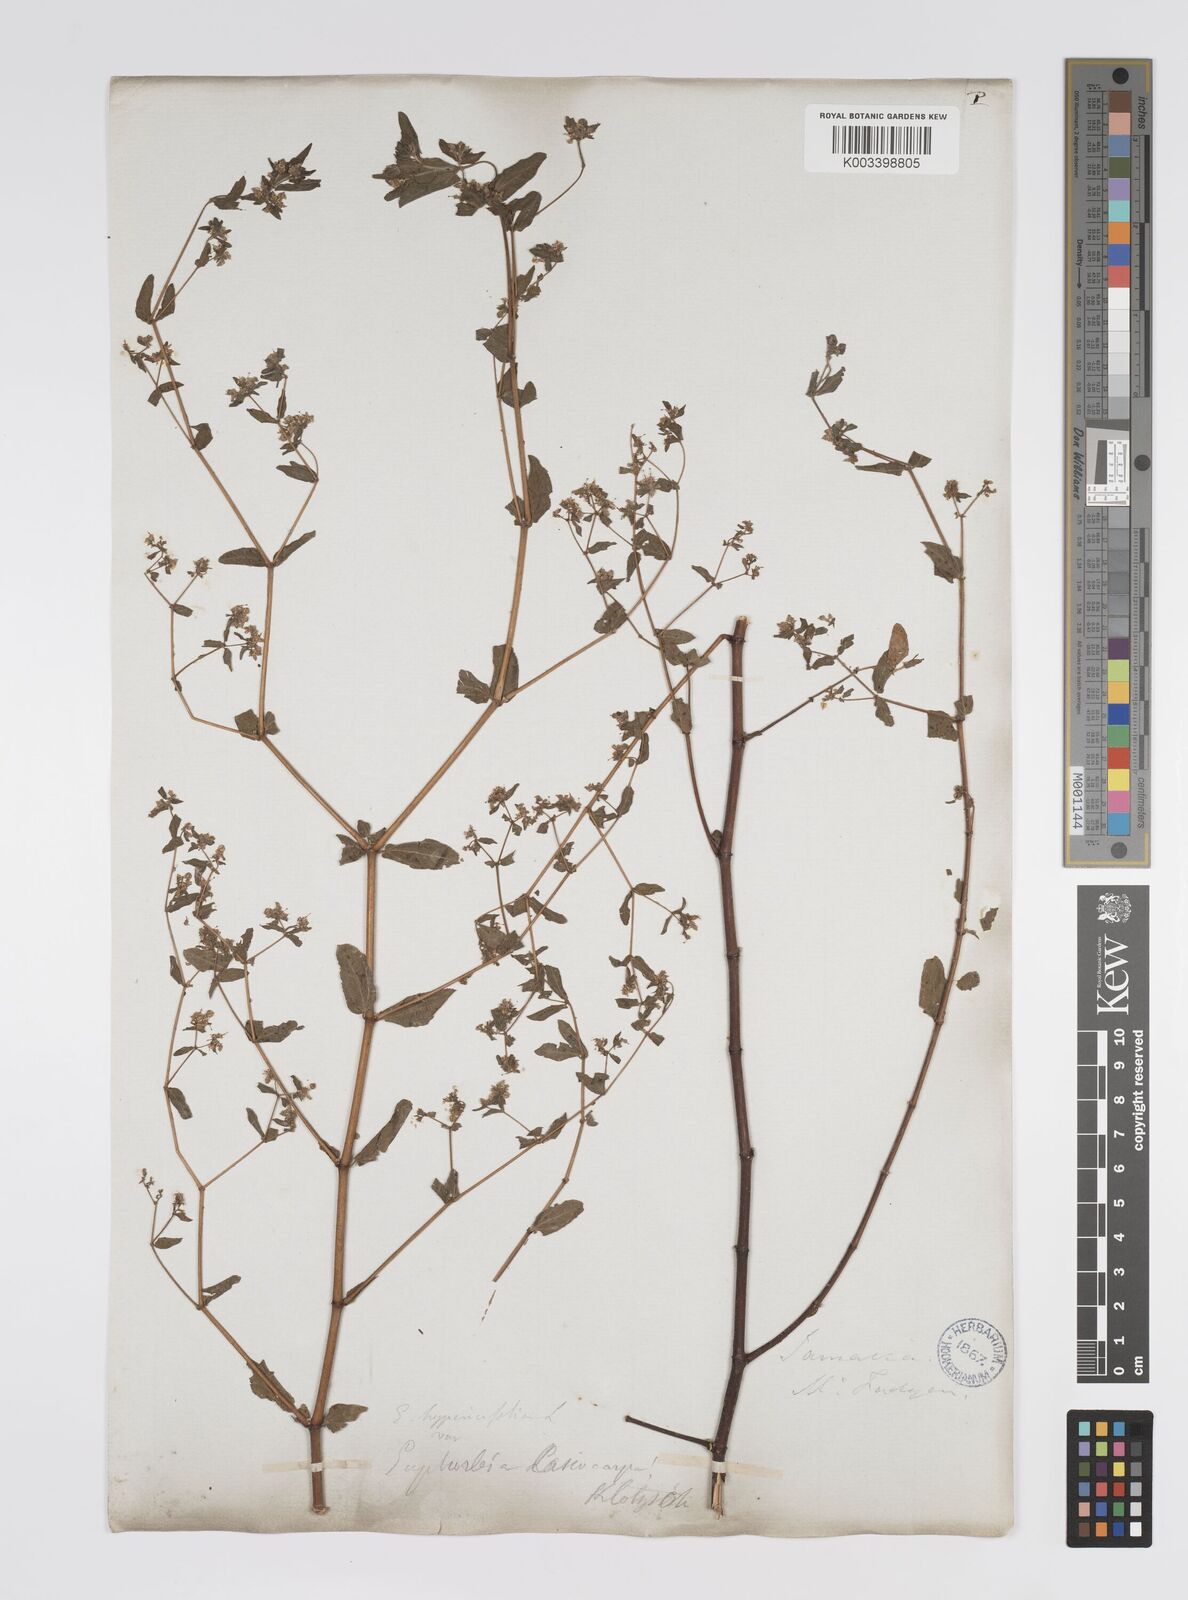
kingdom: Plantae
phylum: Tracheophyta
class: Magnoliopsida
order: Malpighiales
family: Euphorbiaceae
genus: Euphorbia
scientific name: Euphorbia lasiocarpa
